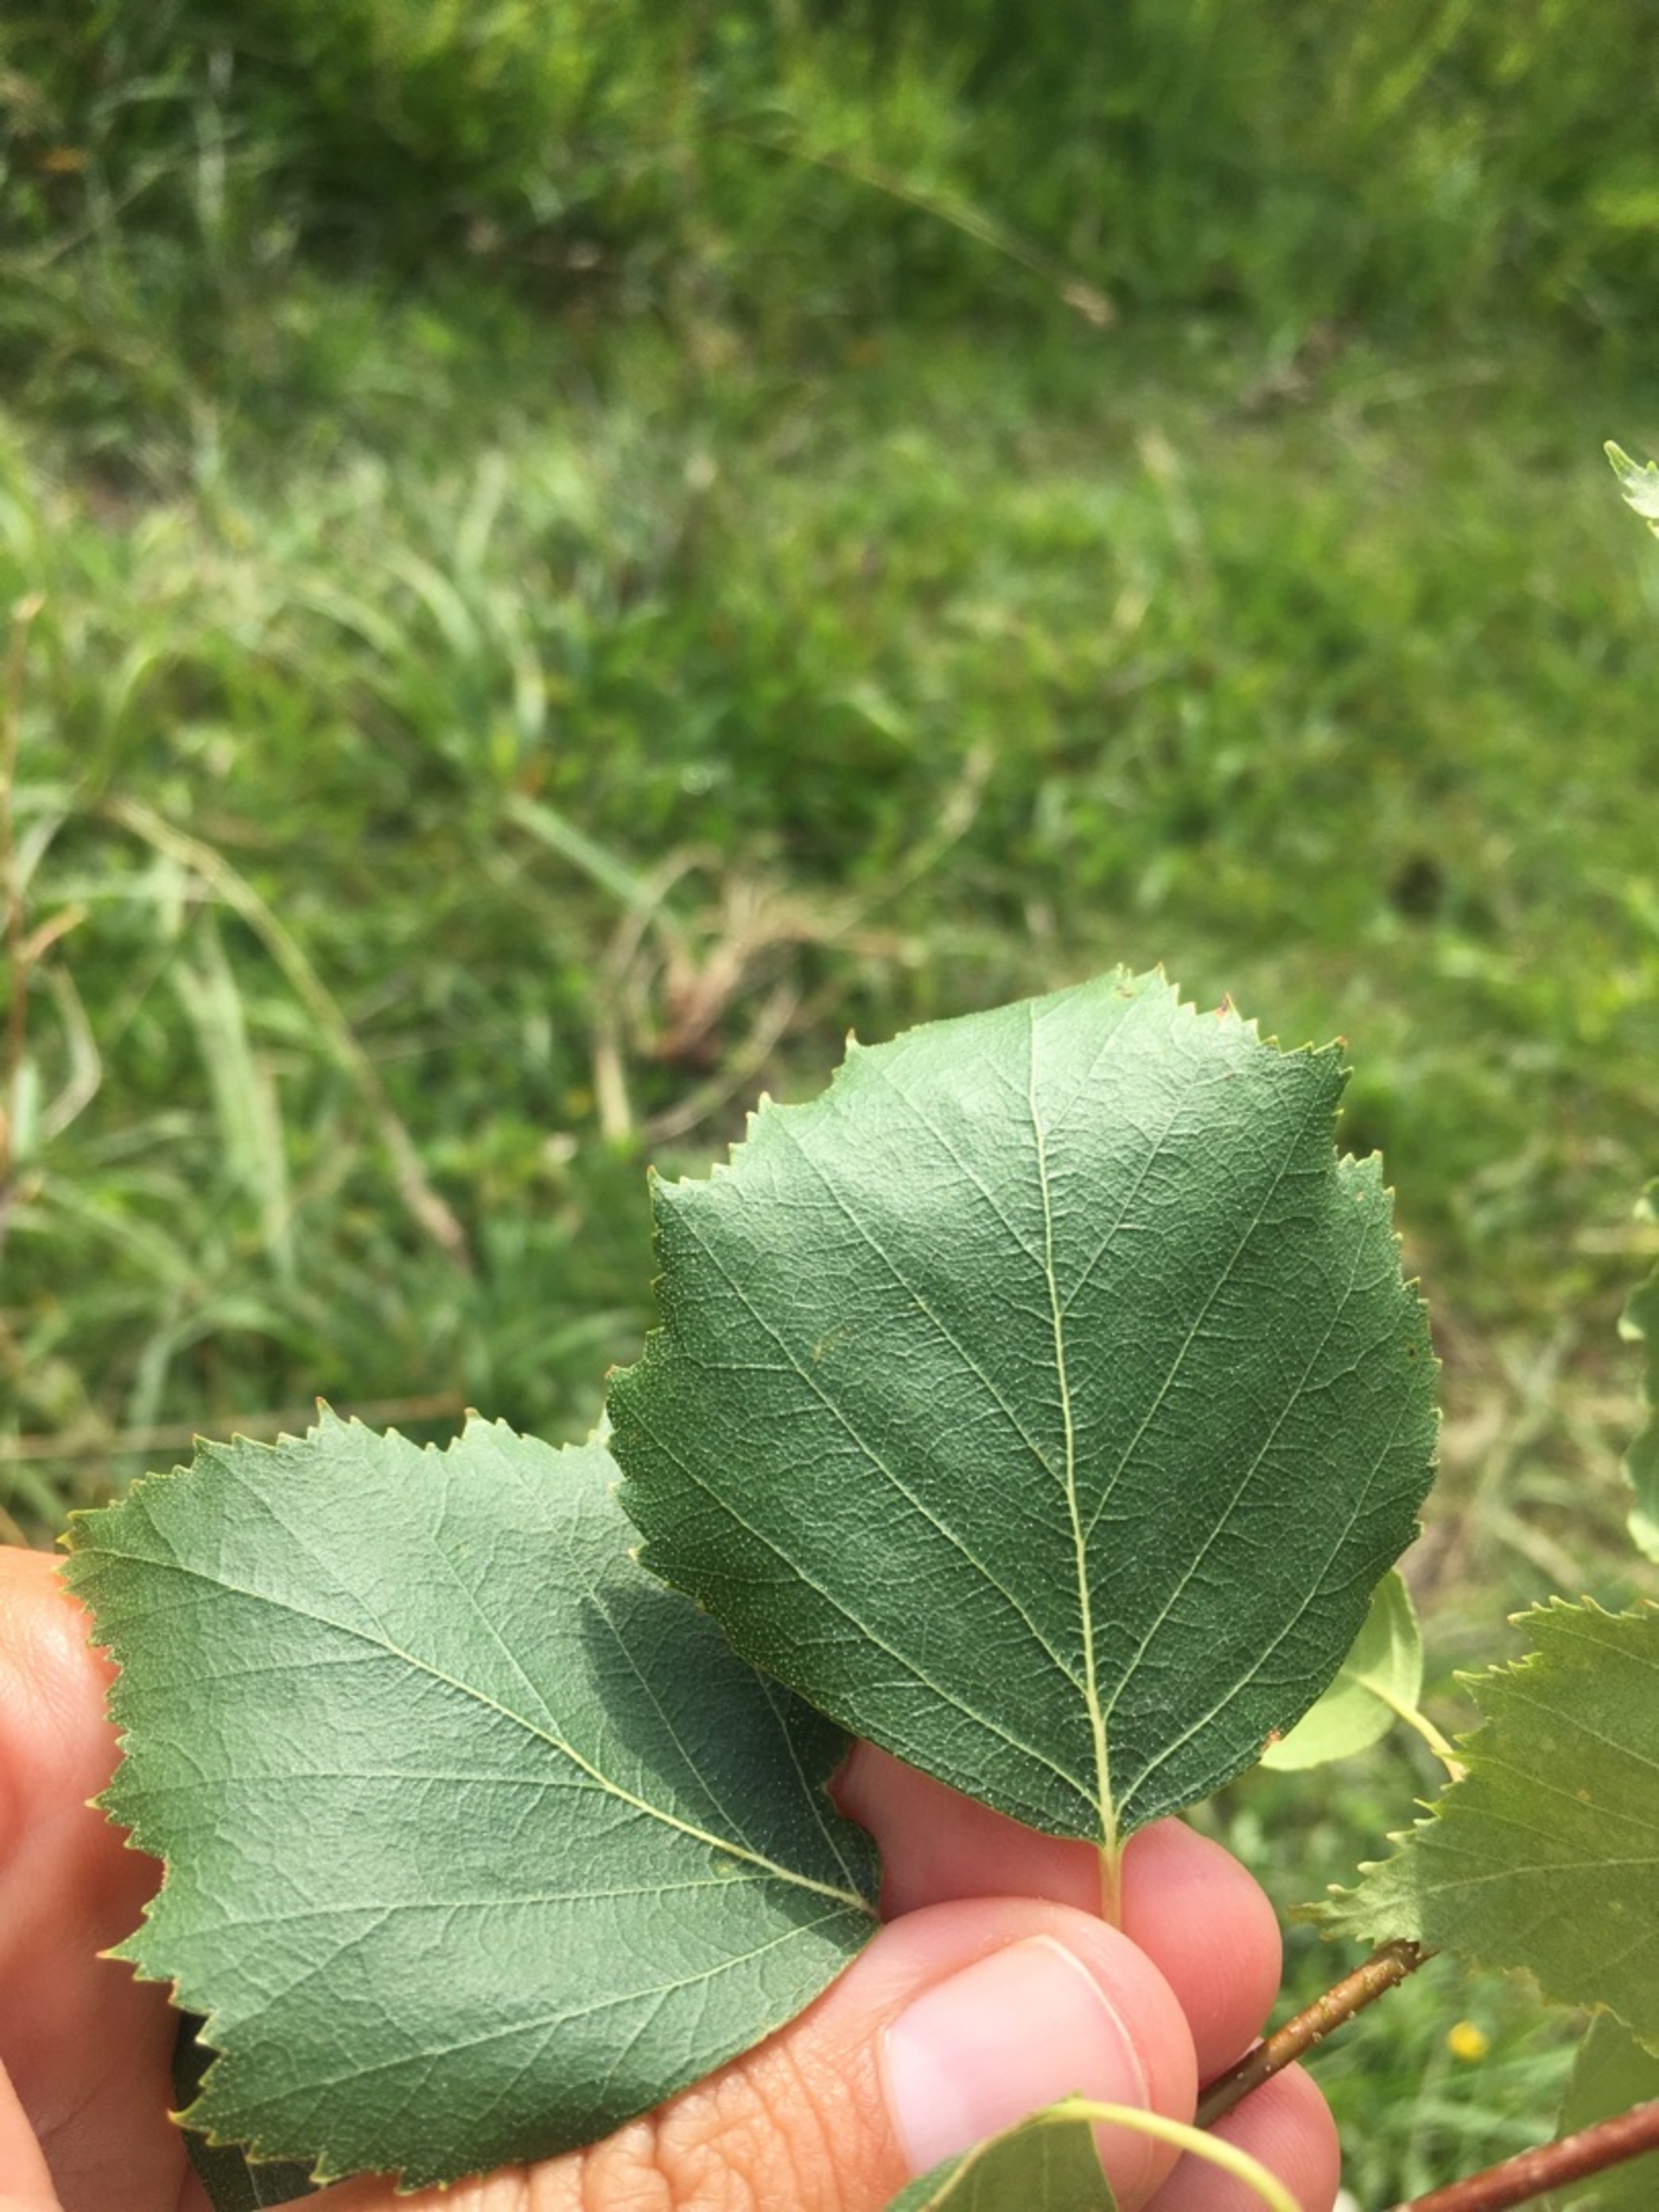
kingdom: Plantae
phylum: Tracheophyta
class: Magnoliopsida
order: Fagales
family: Betulaceae
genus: Betula
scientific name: Betula pendula
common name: Vorte-birk
